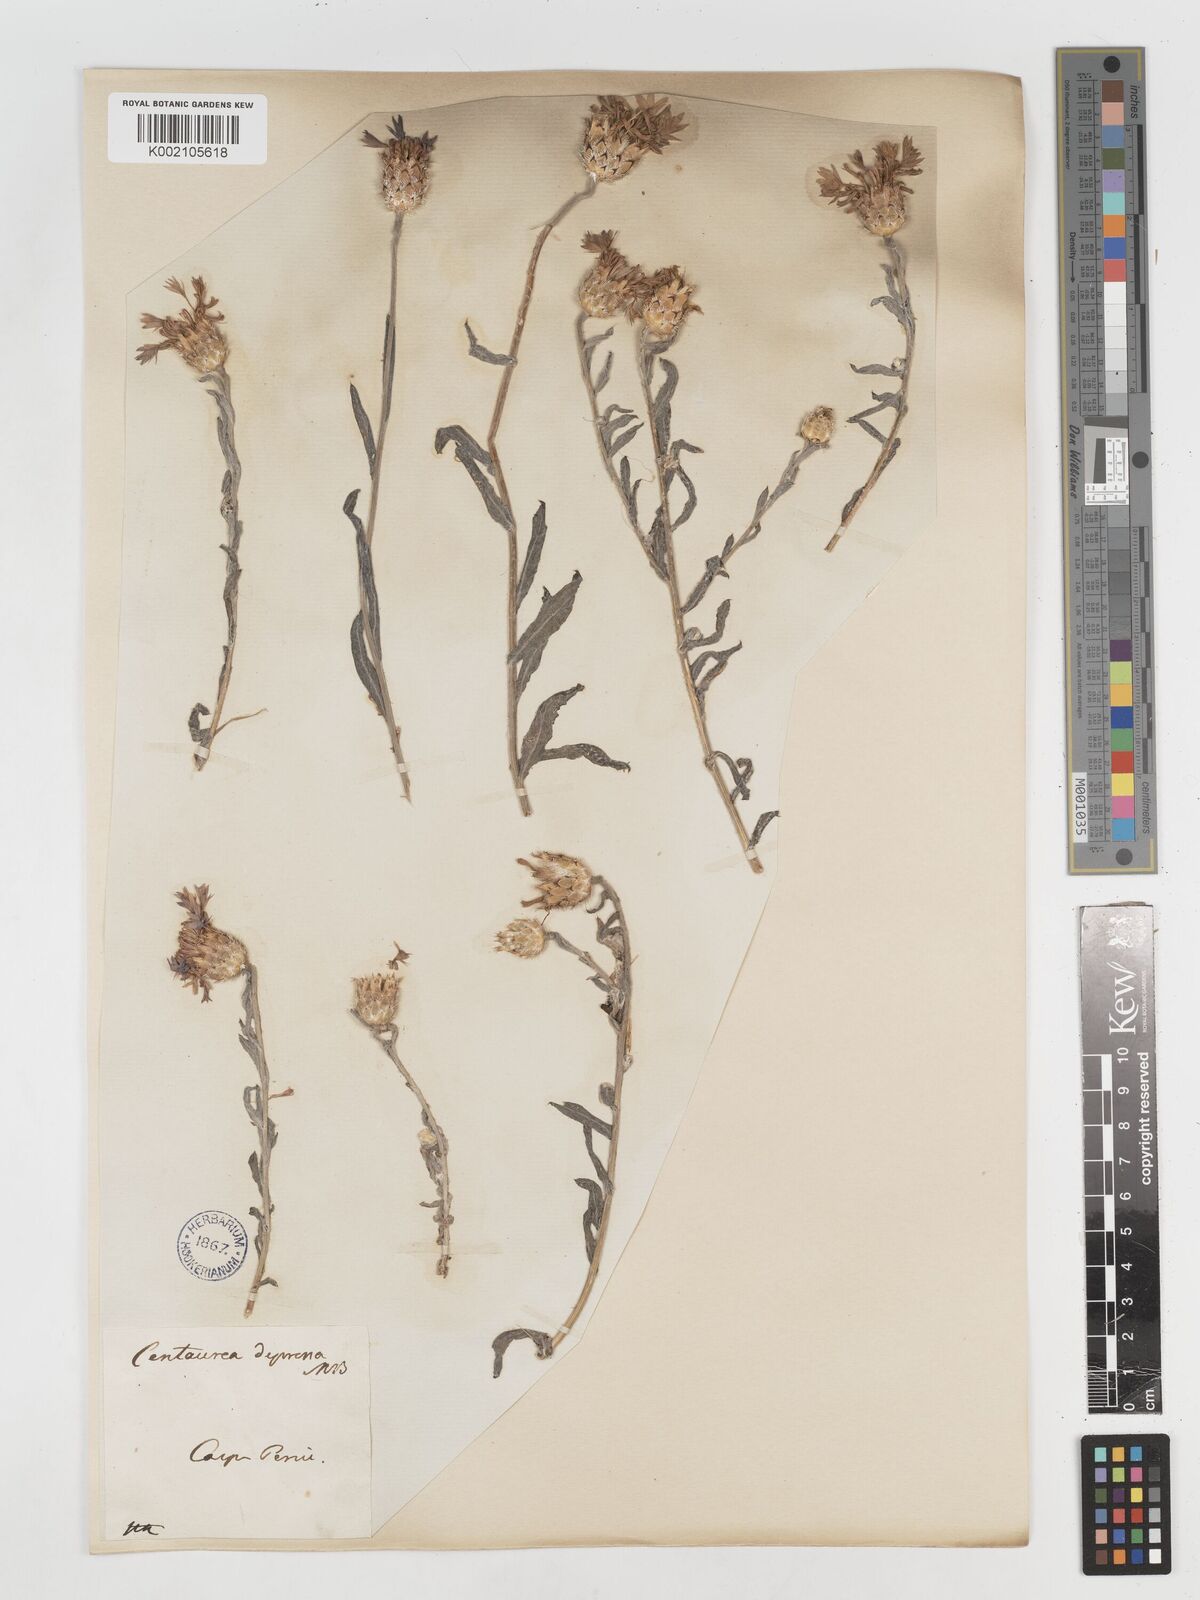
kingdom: Plantae
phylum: Tracheophyta
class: Magnoliopsida
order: Asterales
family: Asteraceae
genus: Centaurea
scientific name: Centaurea depressa
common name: Iranian knapweed
